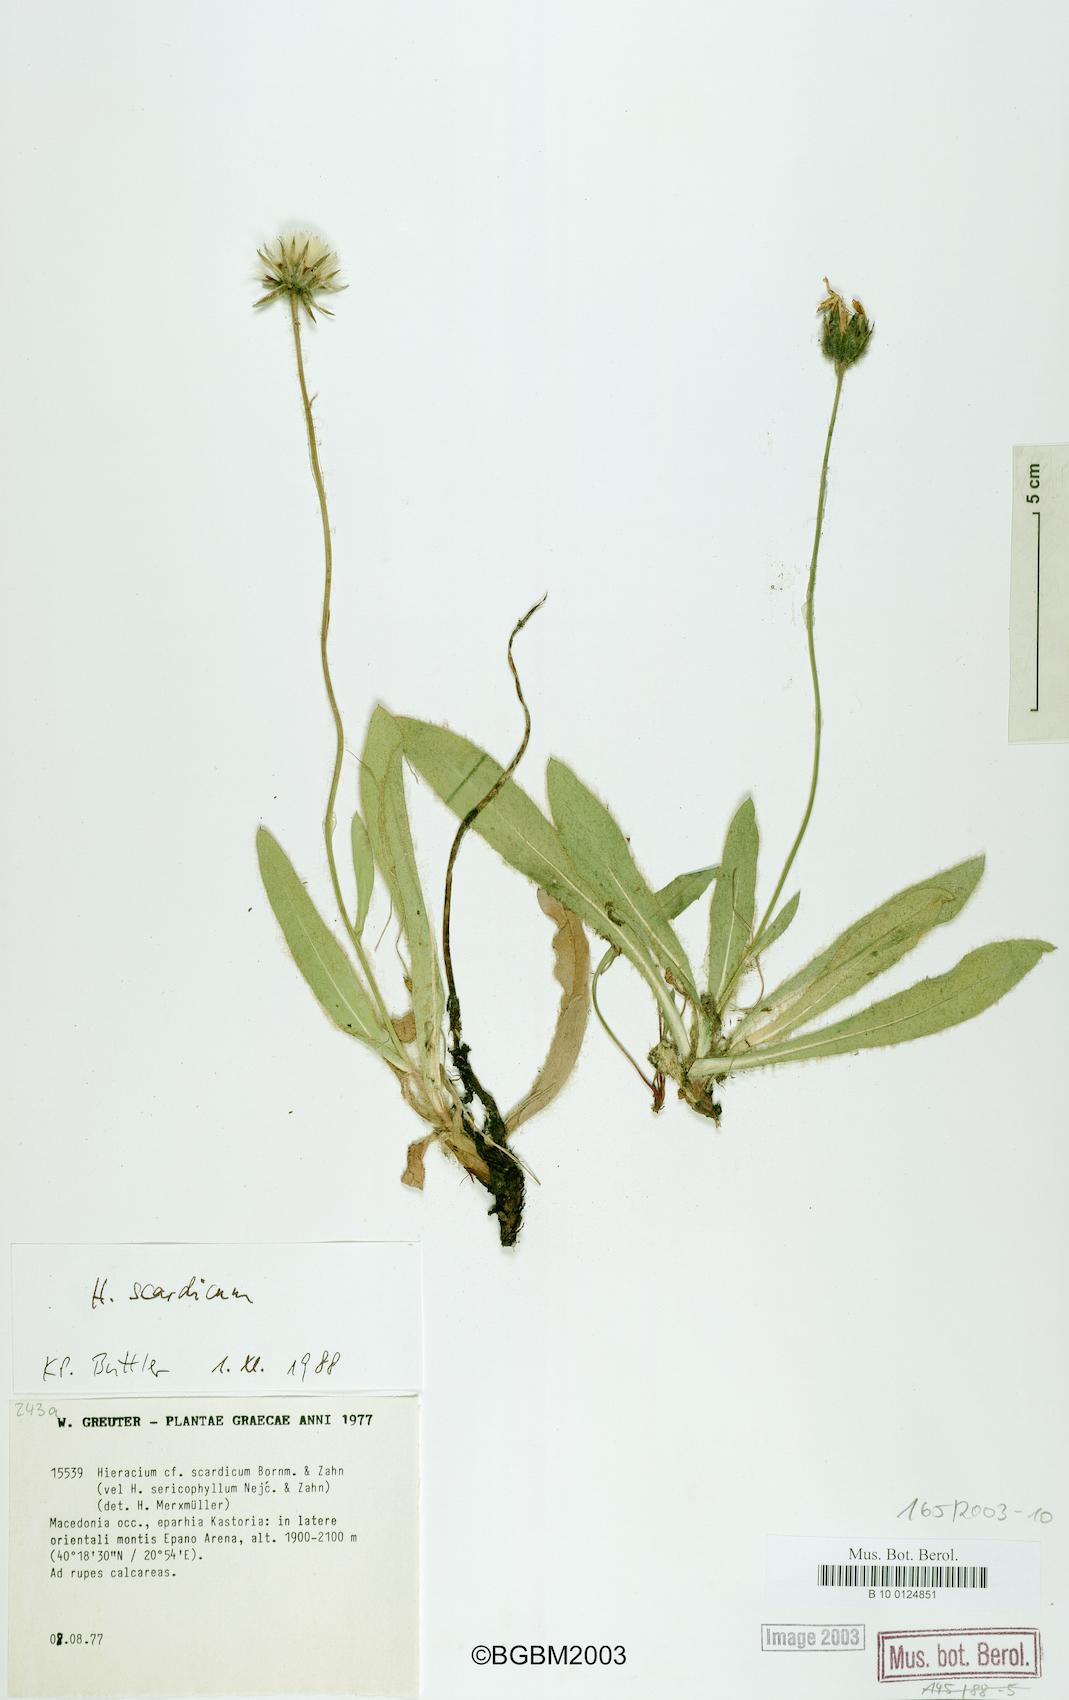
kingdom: Plantae
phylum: Tracheophyta
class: Magnoliopsida
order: Asterales
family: Asteraceae
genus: Hieracium
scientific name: Hieracium scardicum
